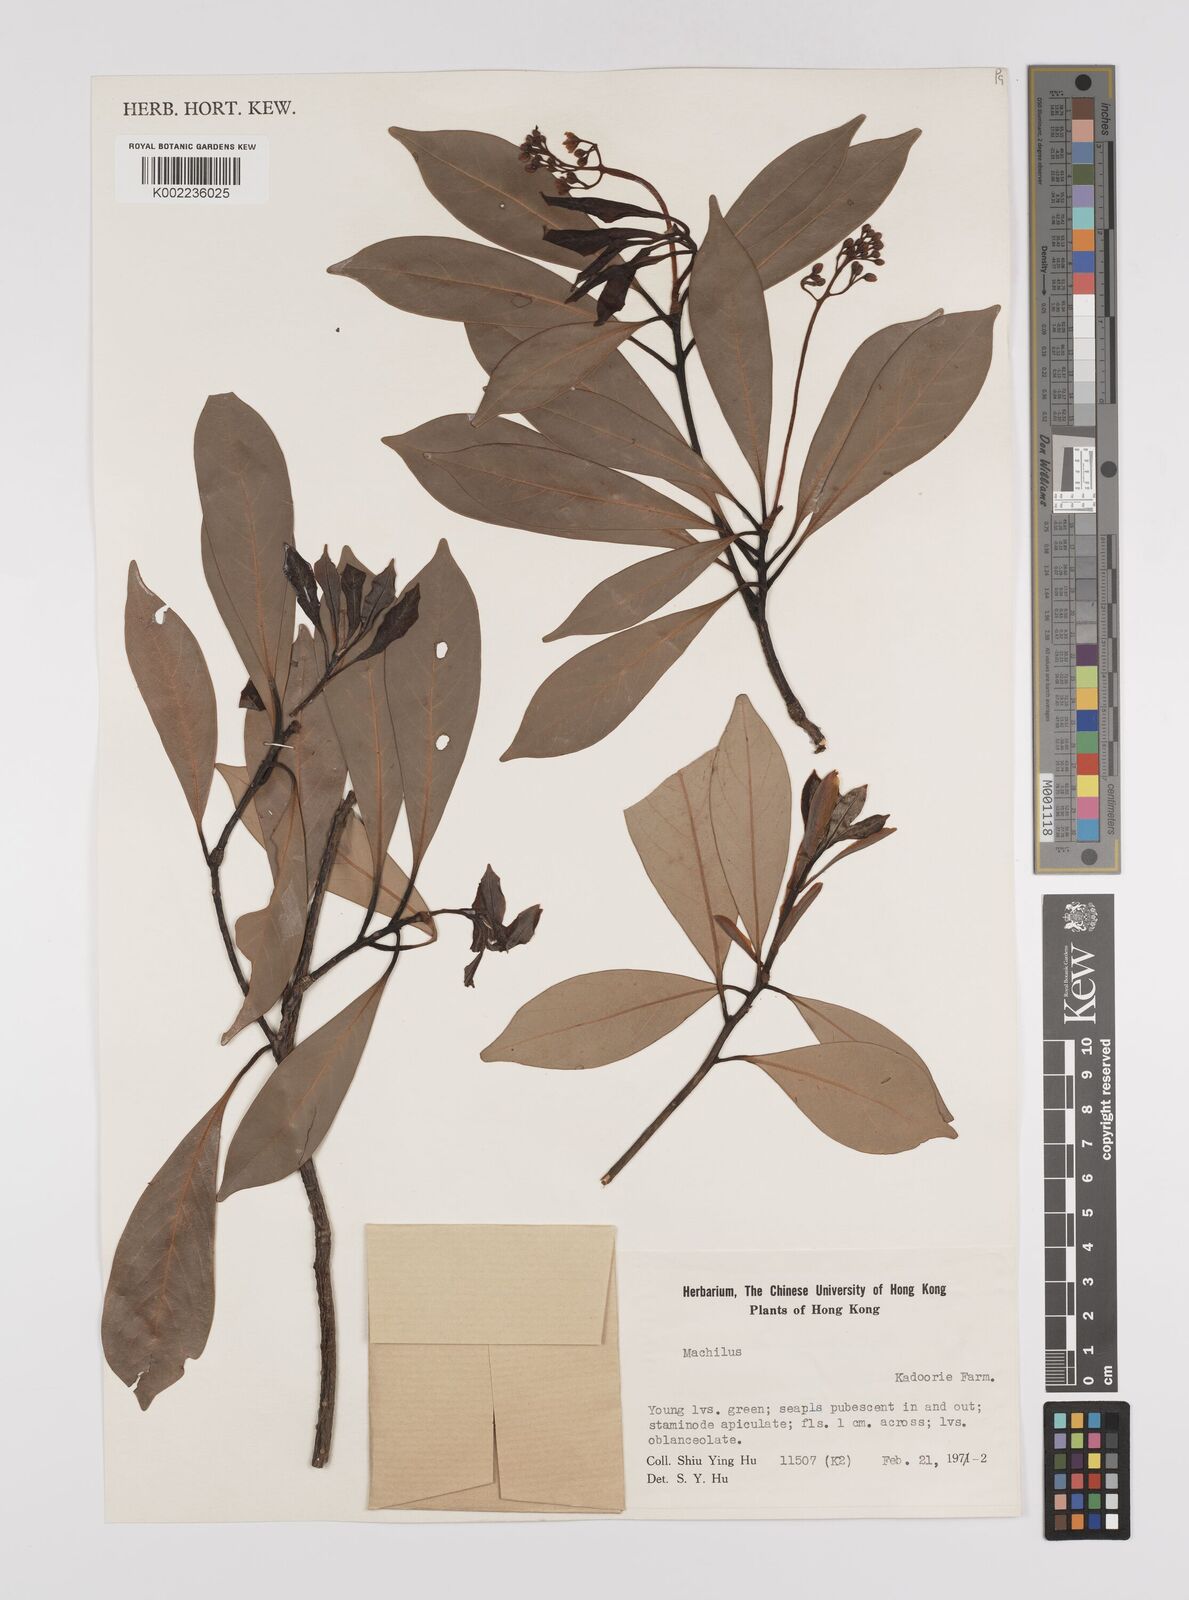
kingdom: Plantae
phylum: Tracheophyta
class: Magnoliopsida
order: Laurales
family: Lauraceae
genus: Persea
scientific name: Persea
